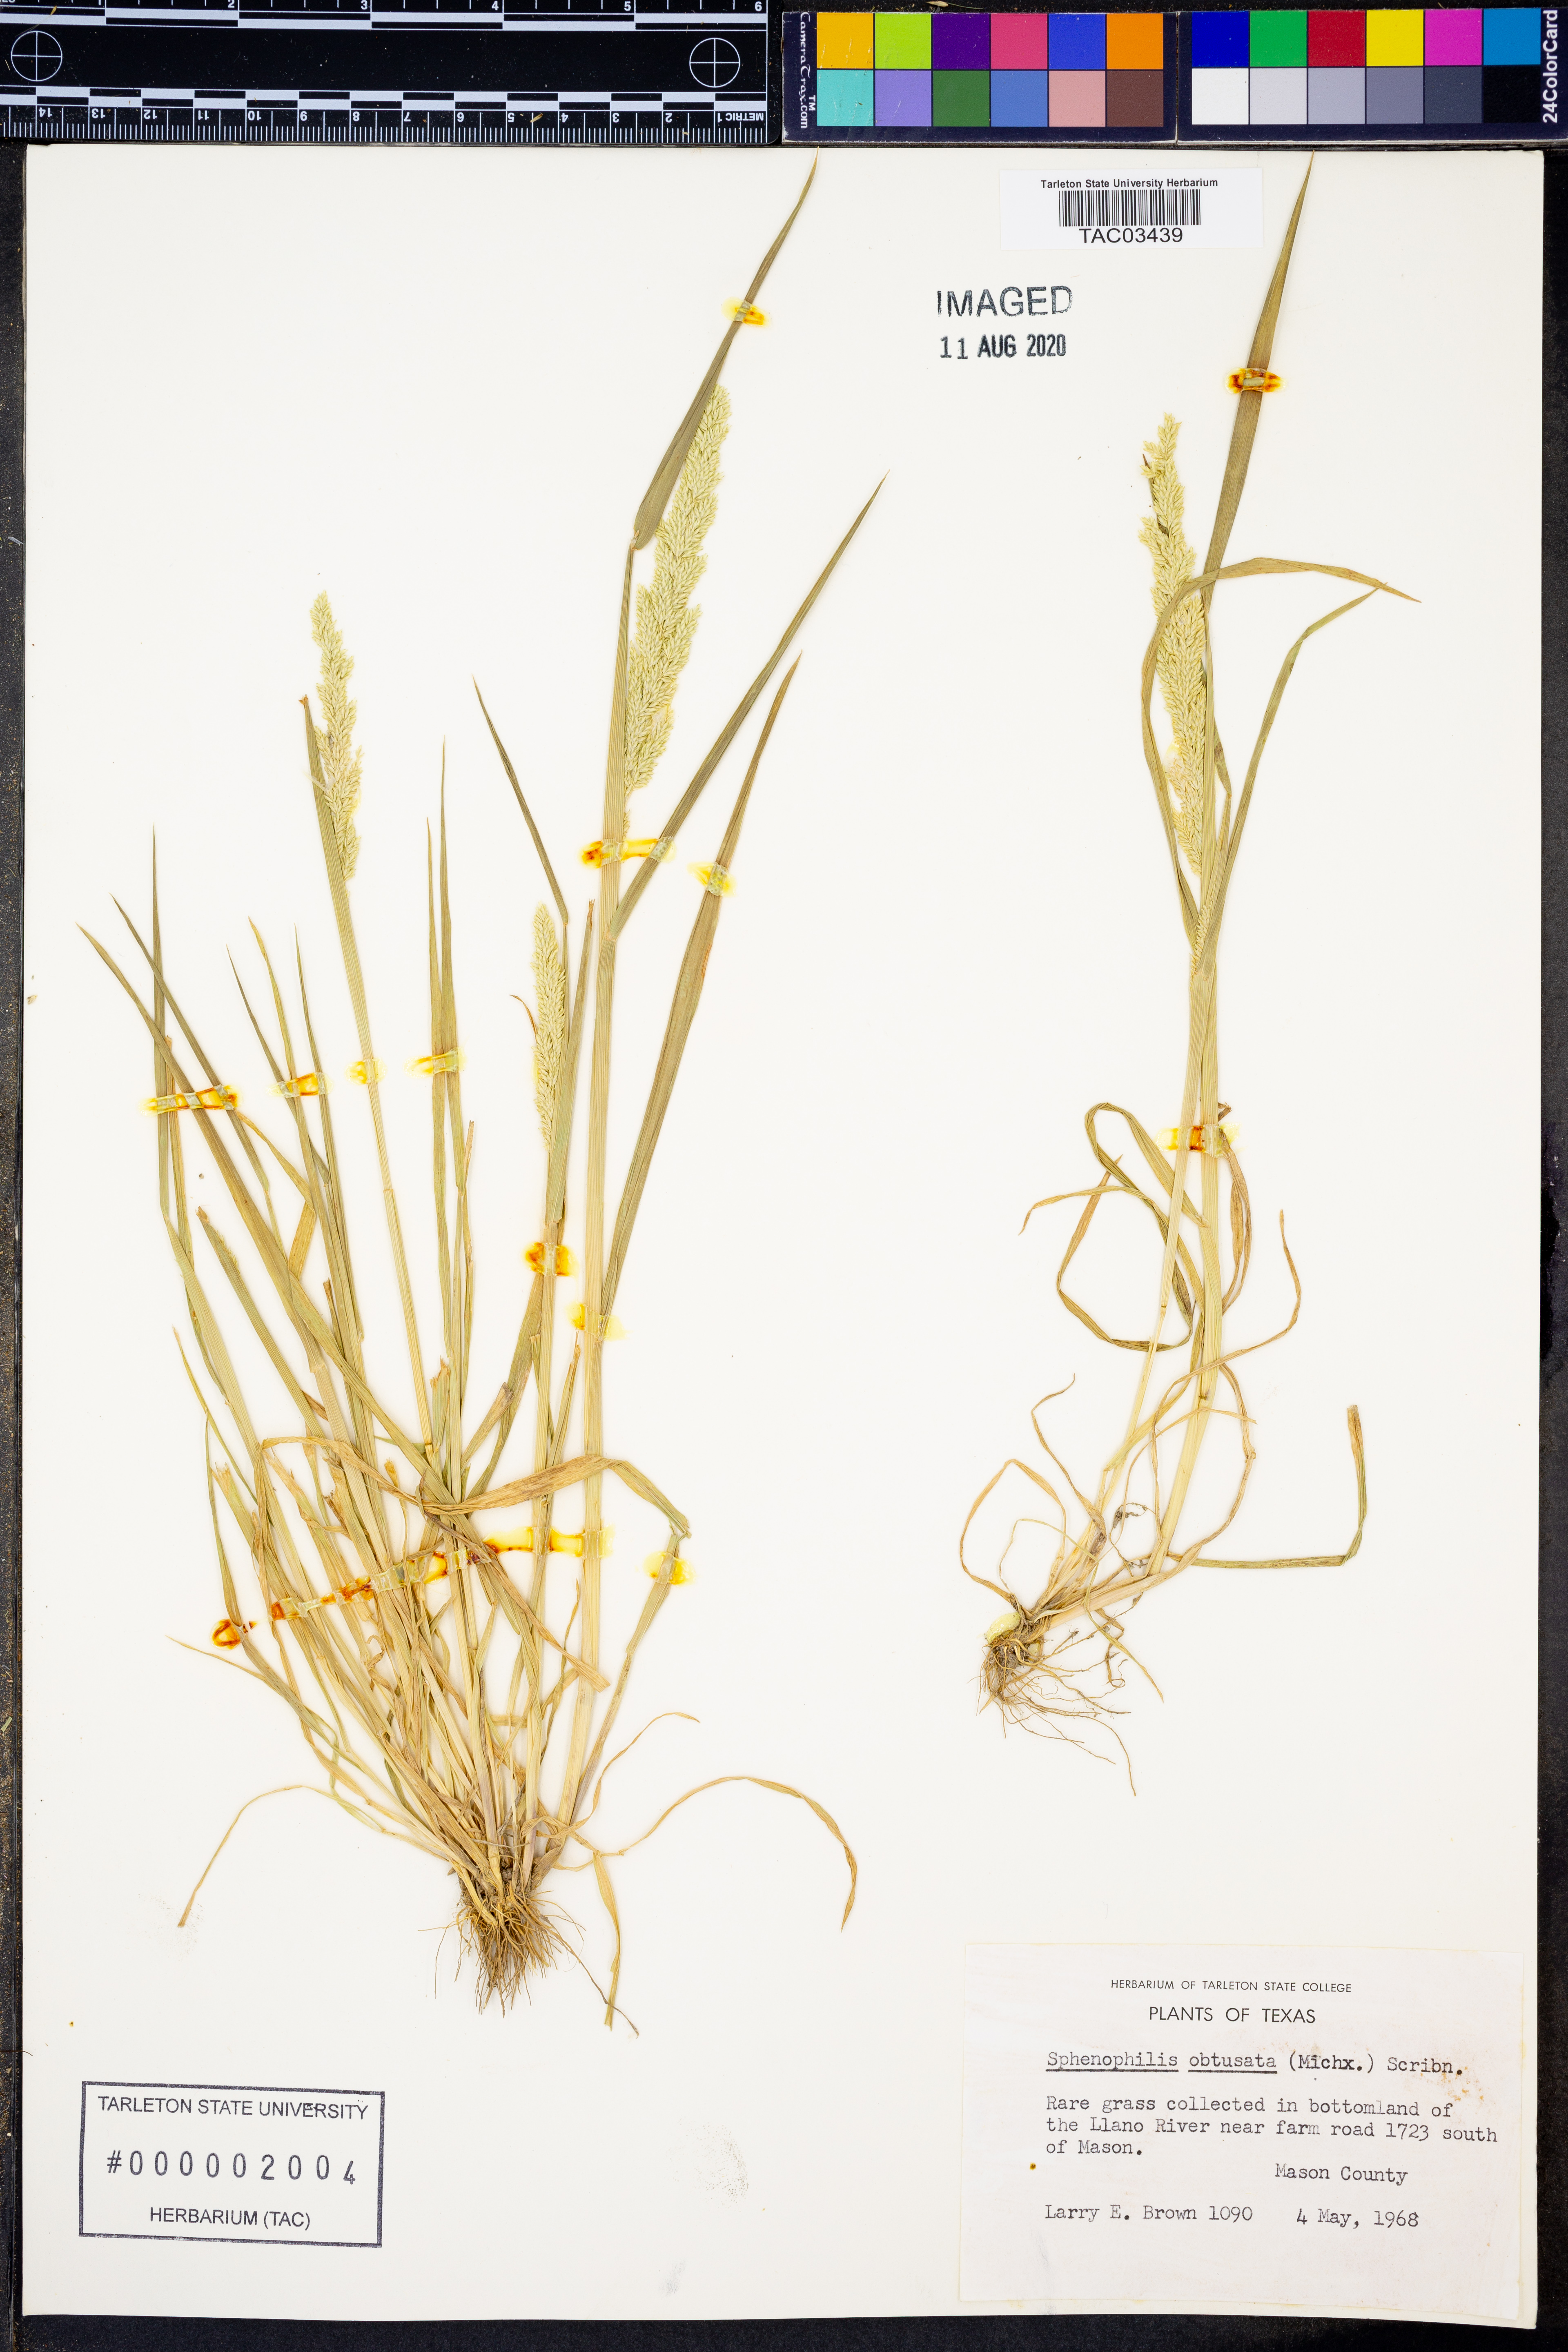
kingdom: Plantae
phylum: Tracheophyta
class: Liliopsida
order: Poales
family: Poaceae
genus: Sphenopholis
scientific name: Sphenopholis obtusata
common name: Prairie grass
